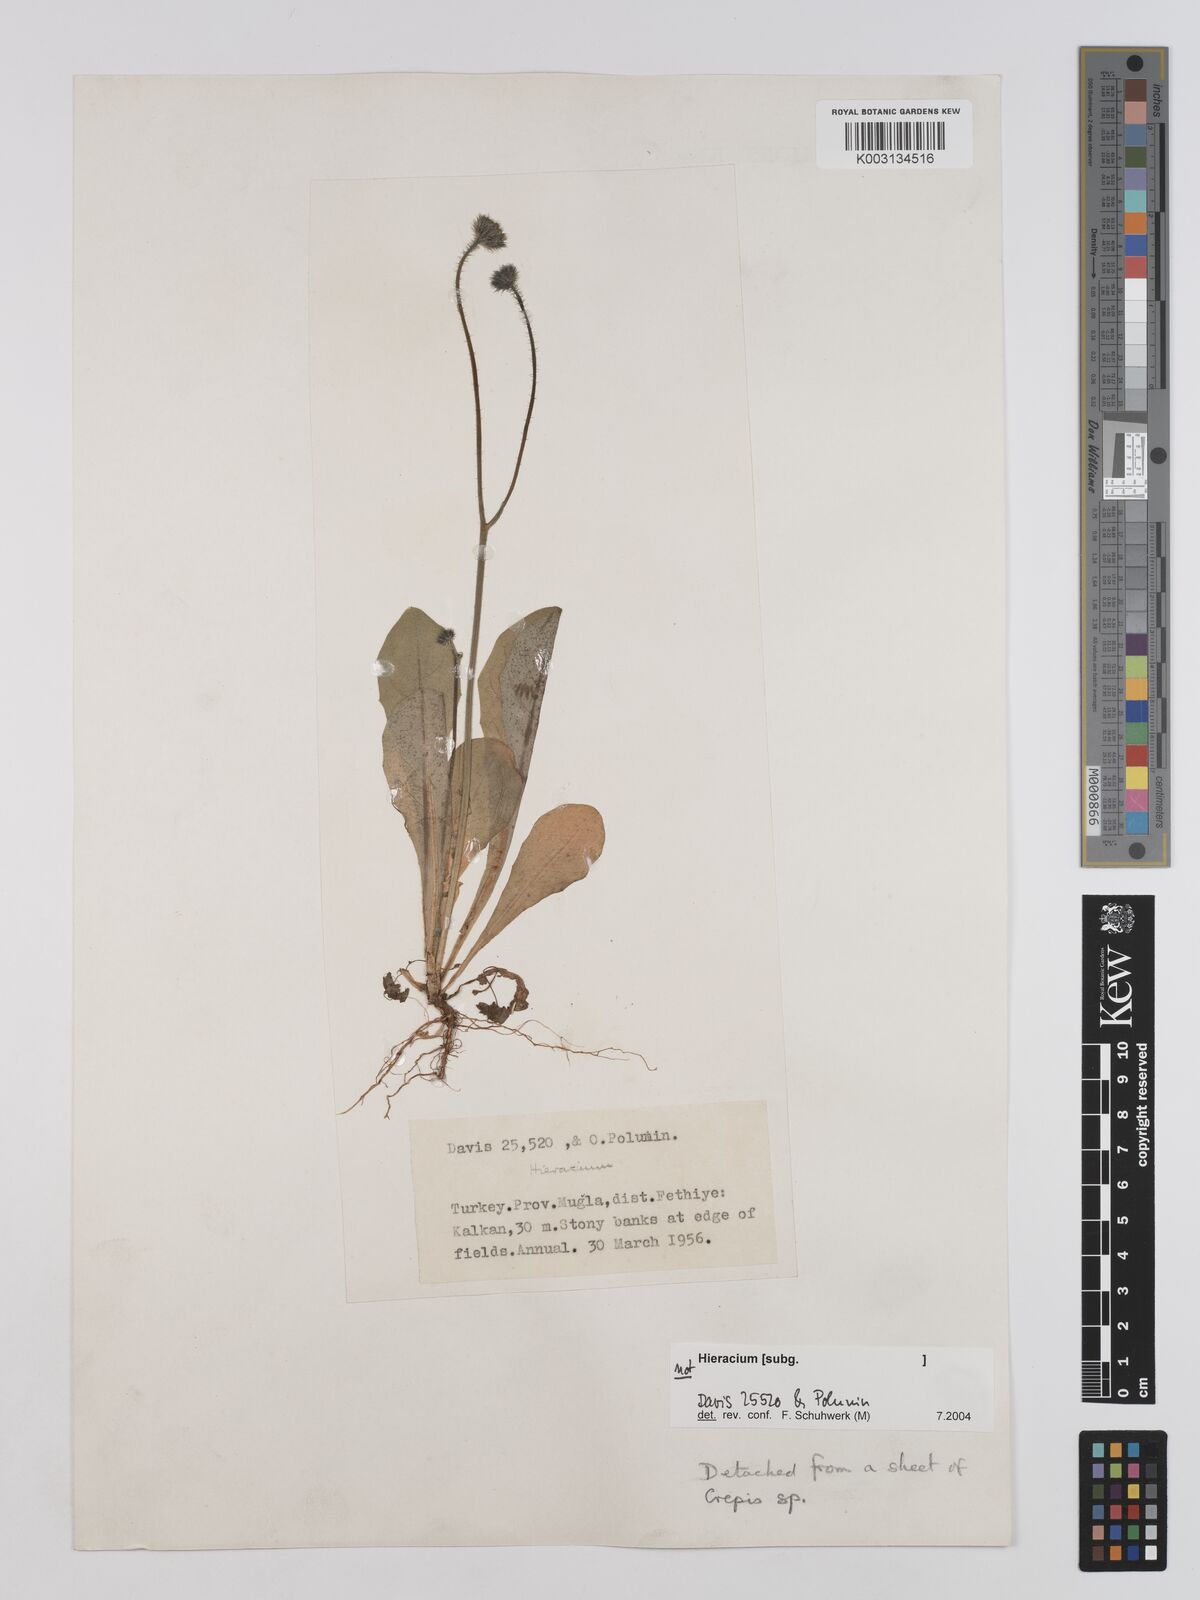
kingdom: Plantae
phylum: Tracheophyta
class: Magnoliopsida
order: Asterales
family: Asteraceae
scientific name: Asteraceae
